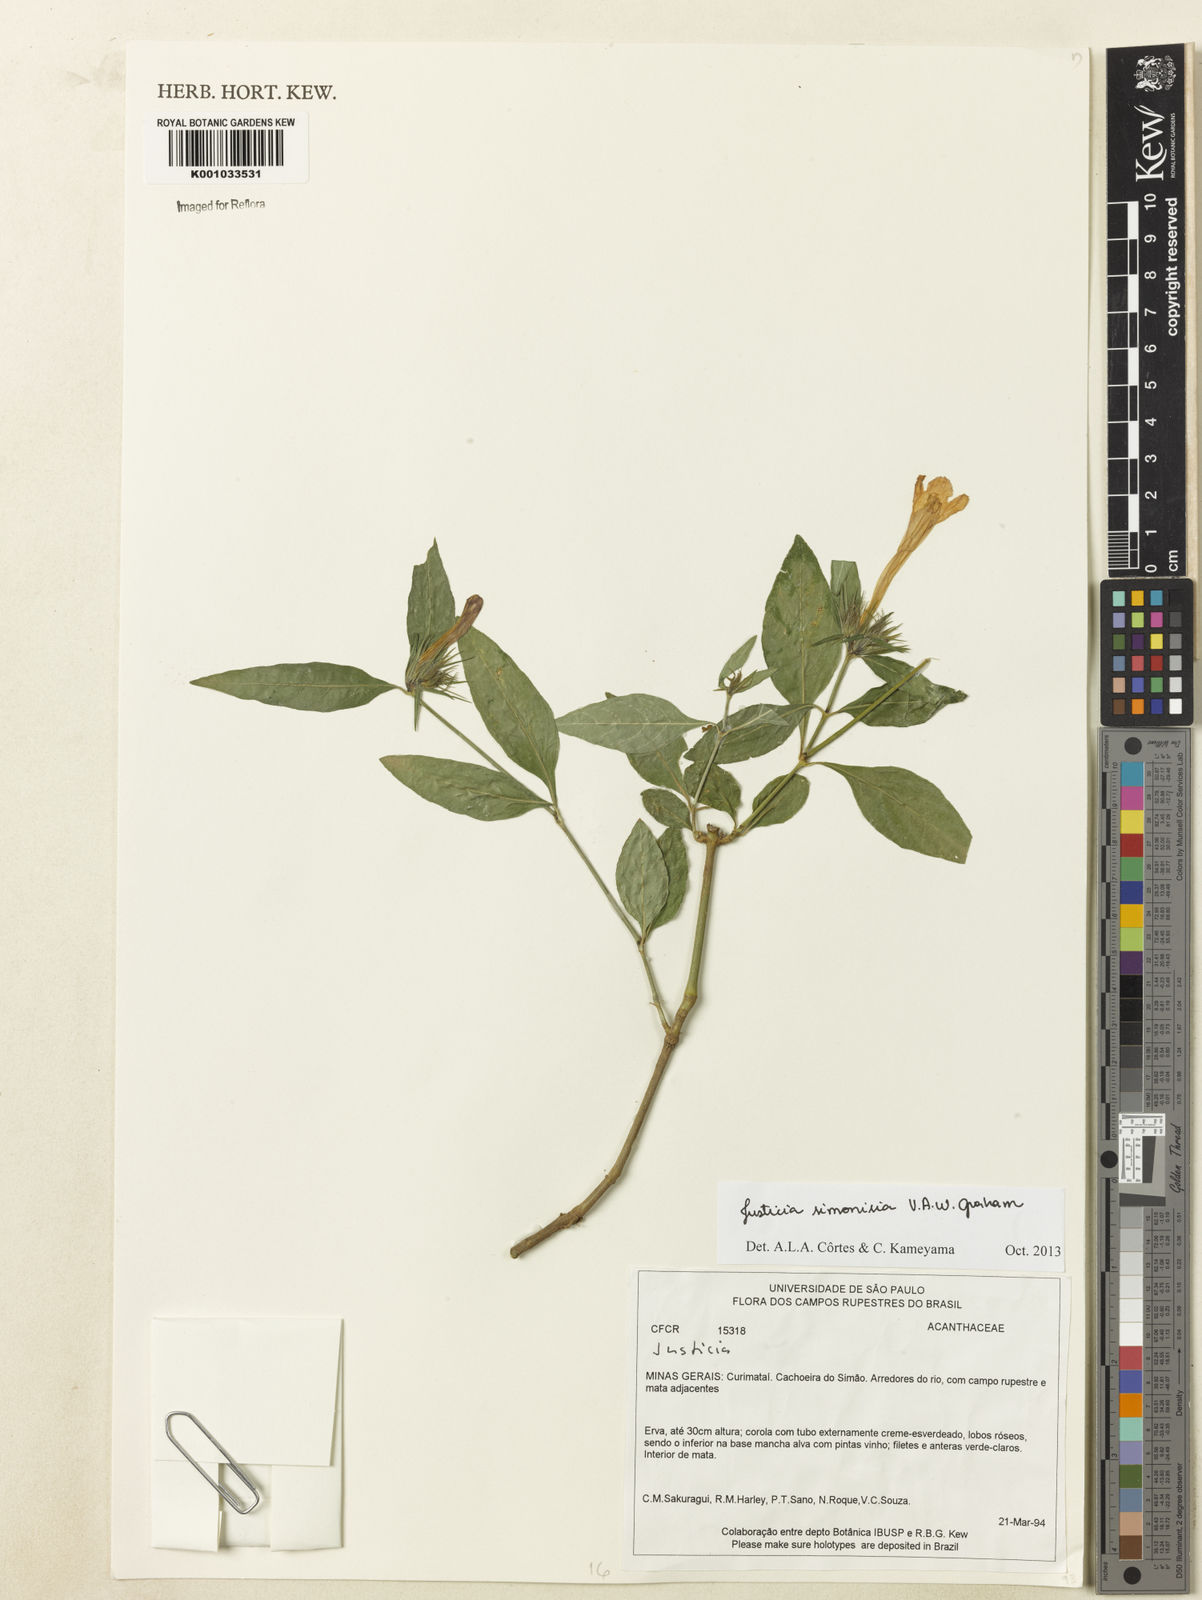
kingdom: Plantae
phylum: Tracheophyta
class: Magnoliopsida
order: Lamiales
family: Acanthaceae
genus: Justicia
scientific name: Justicia simonisia
